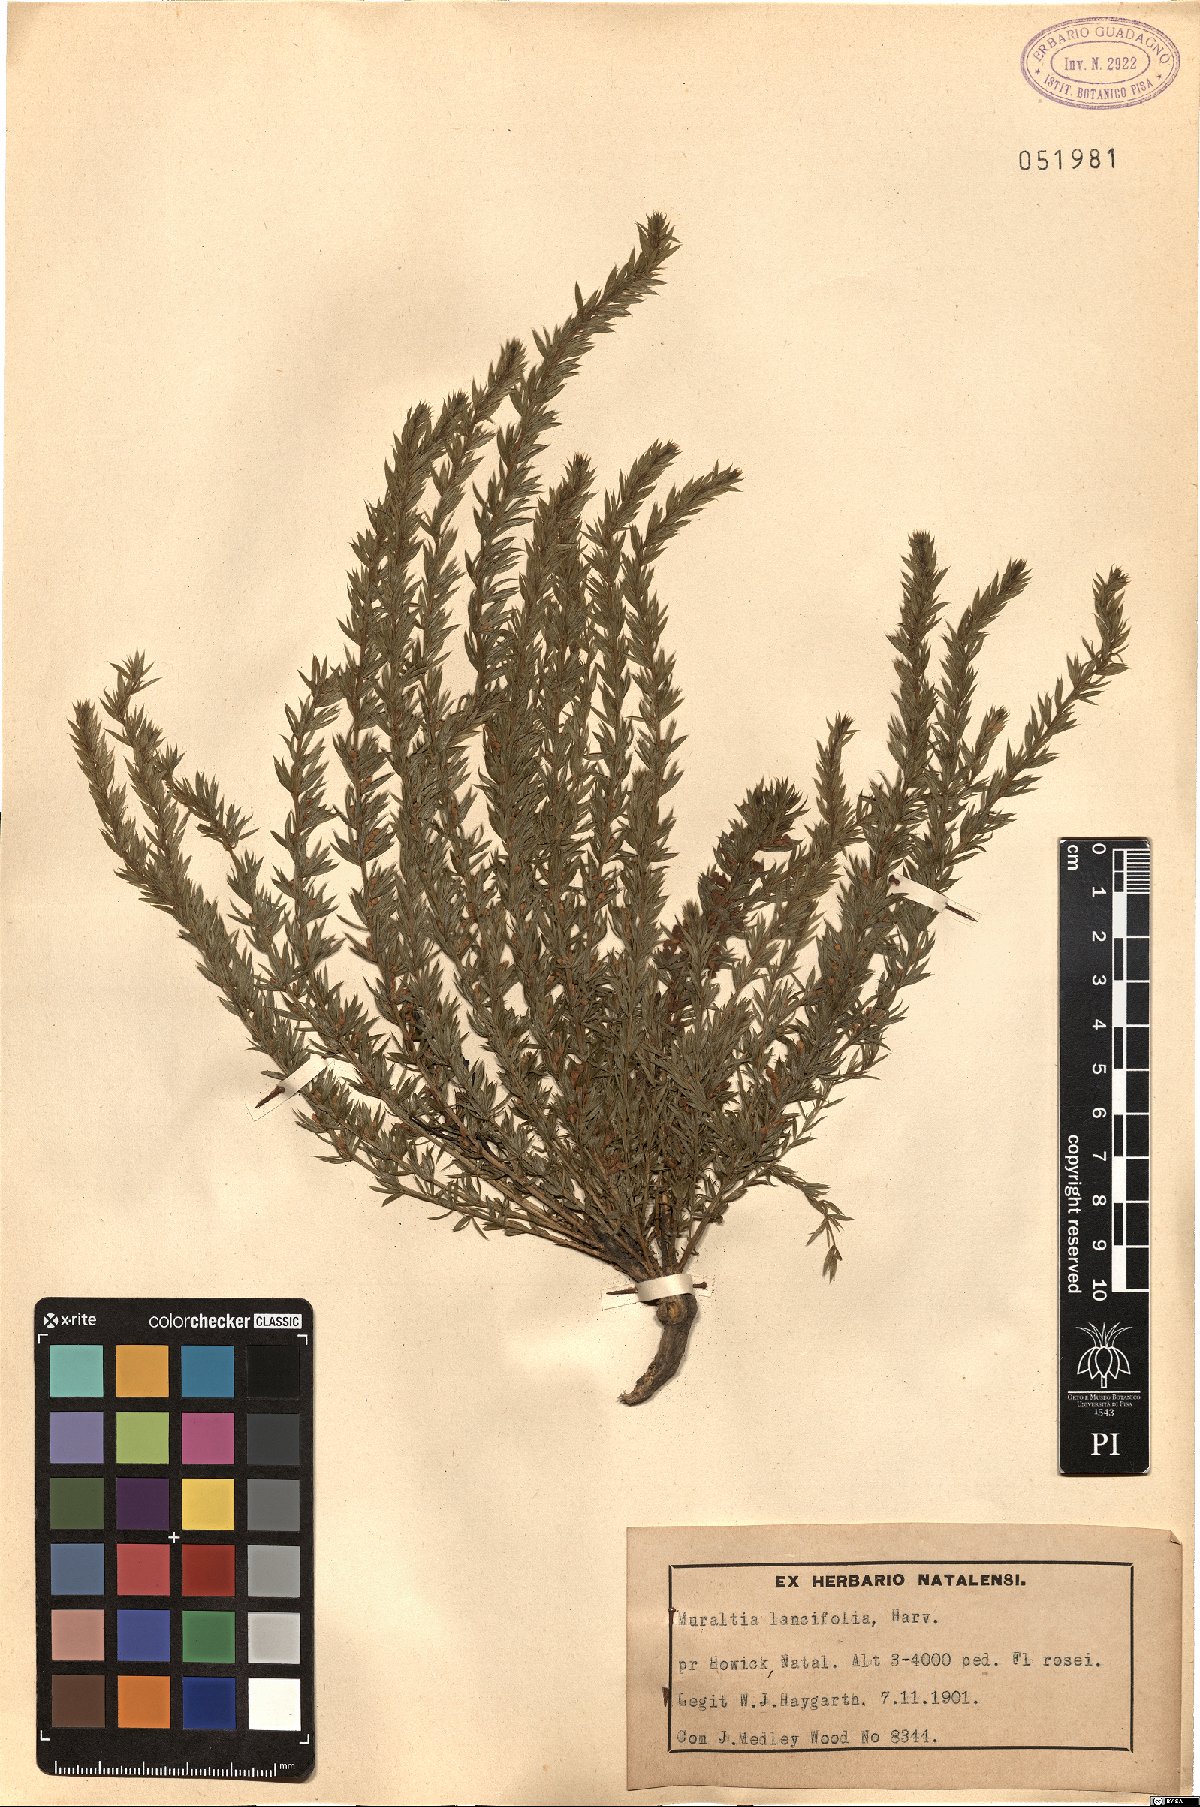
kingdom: Plantae
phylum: Tracheophyta
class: Magnoliopsida
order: Fabales
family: Polygalaceae
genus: Muraltia
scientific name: Muraltia lancifolia
